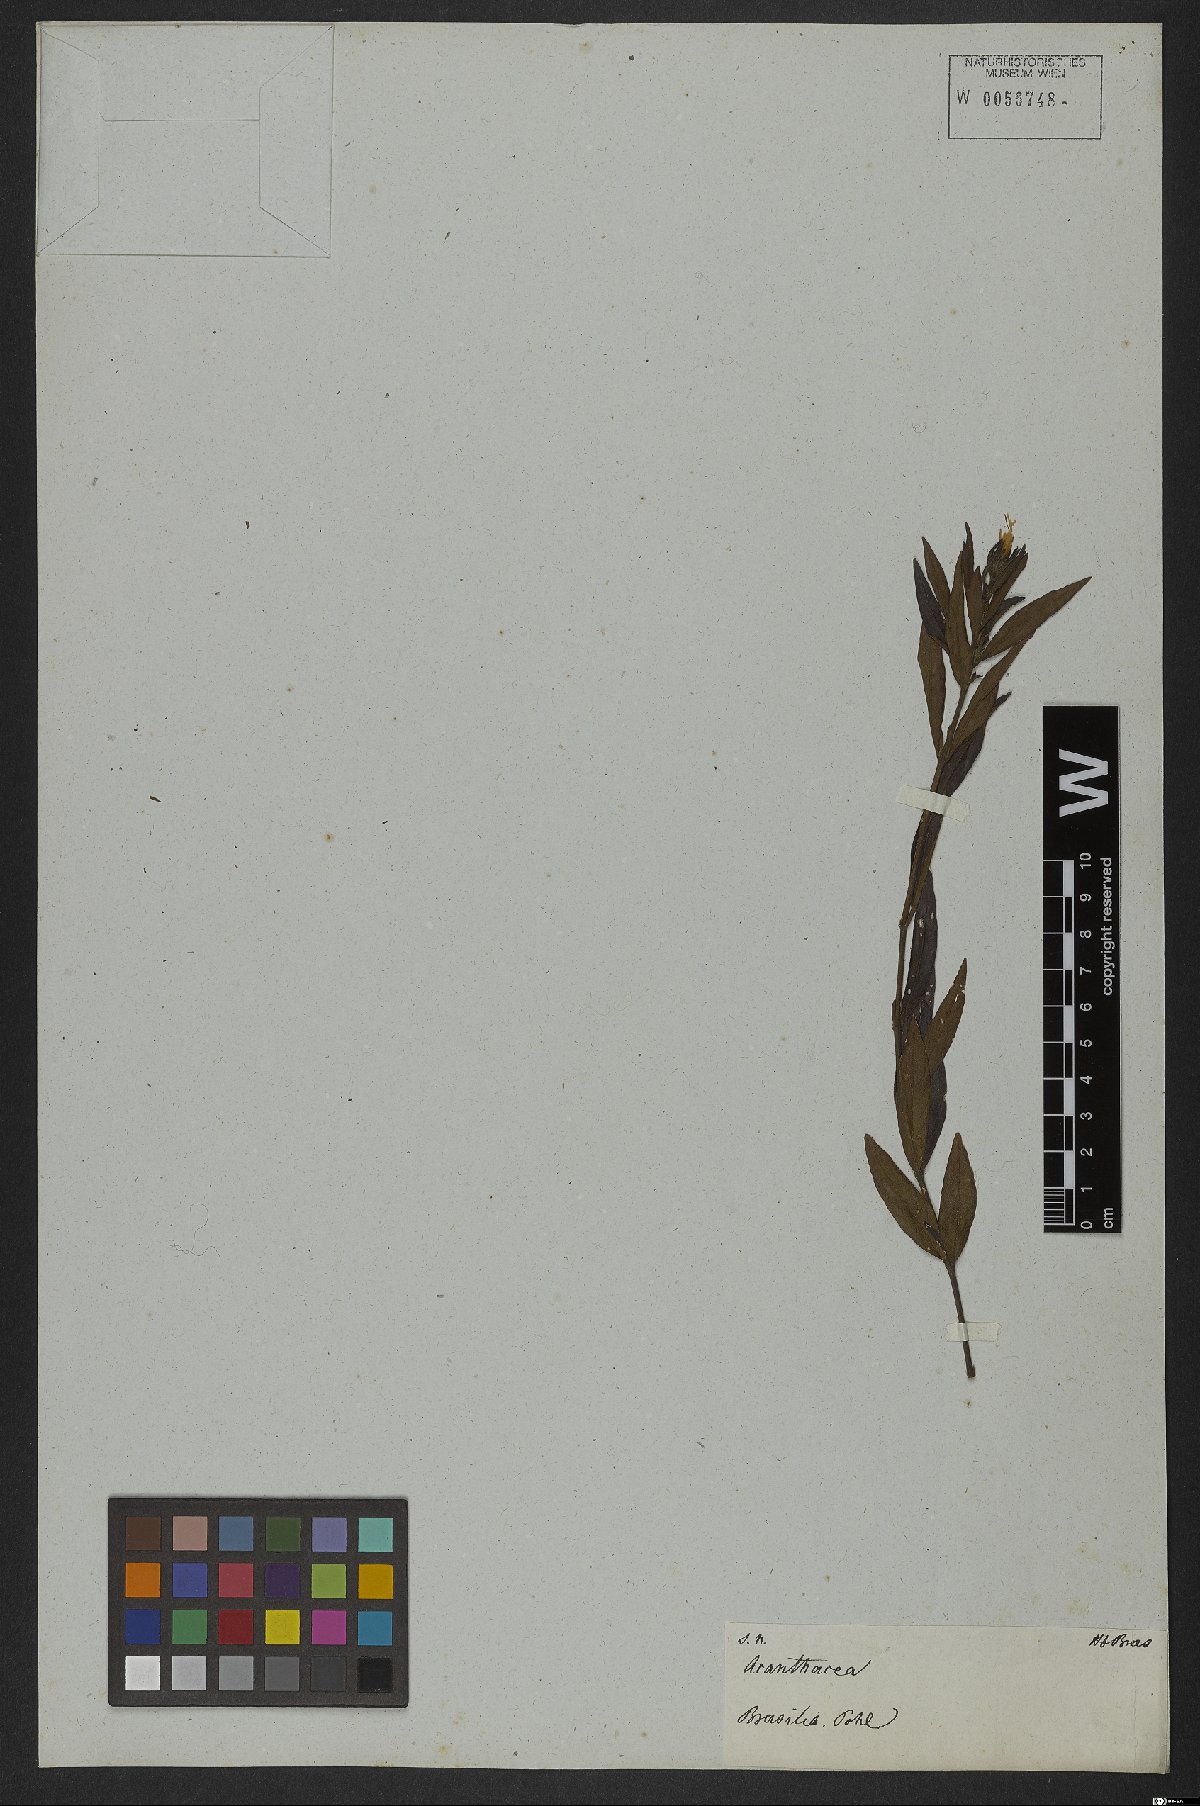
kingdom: Plantae
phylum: Tracheophyta
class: Magnoliopsida
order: Lamiales
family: Acanthaceae
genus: Dianthera
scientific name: Dianthera laevilinguis
